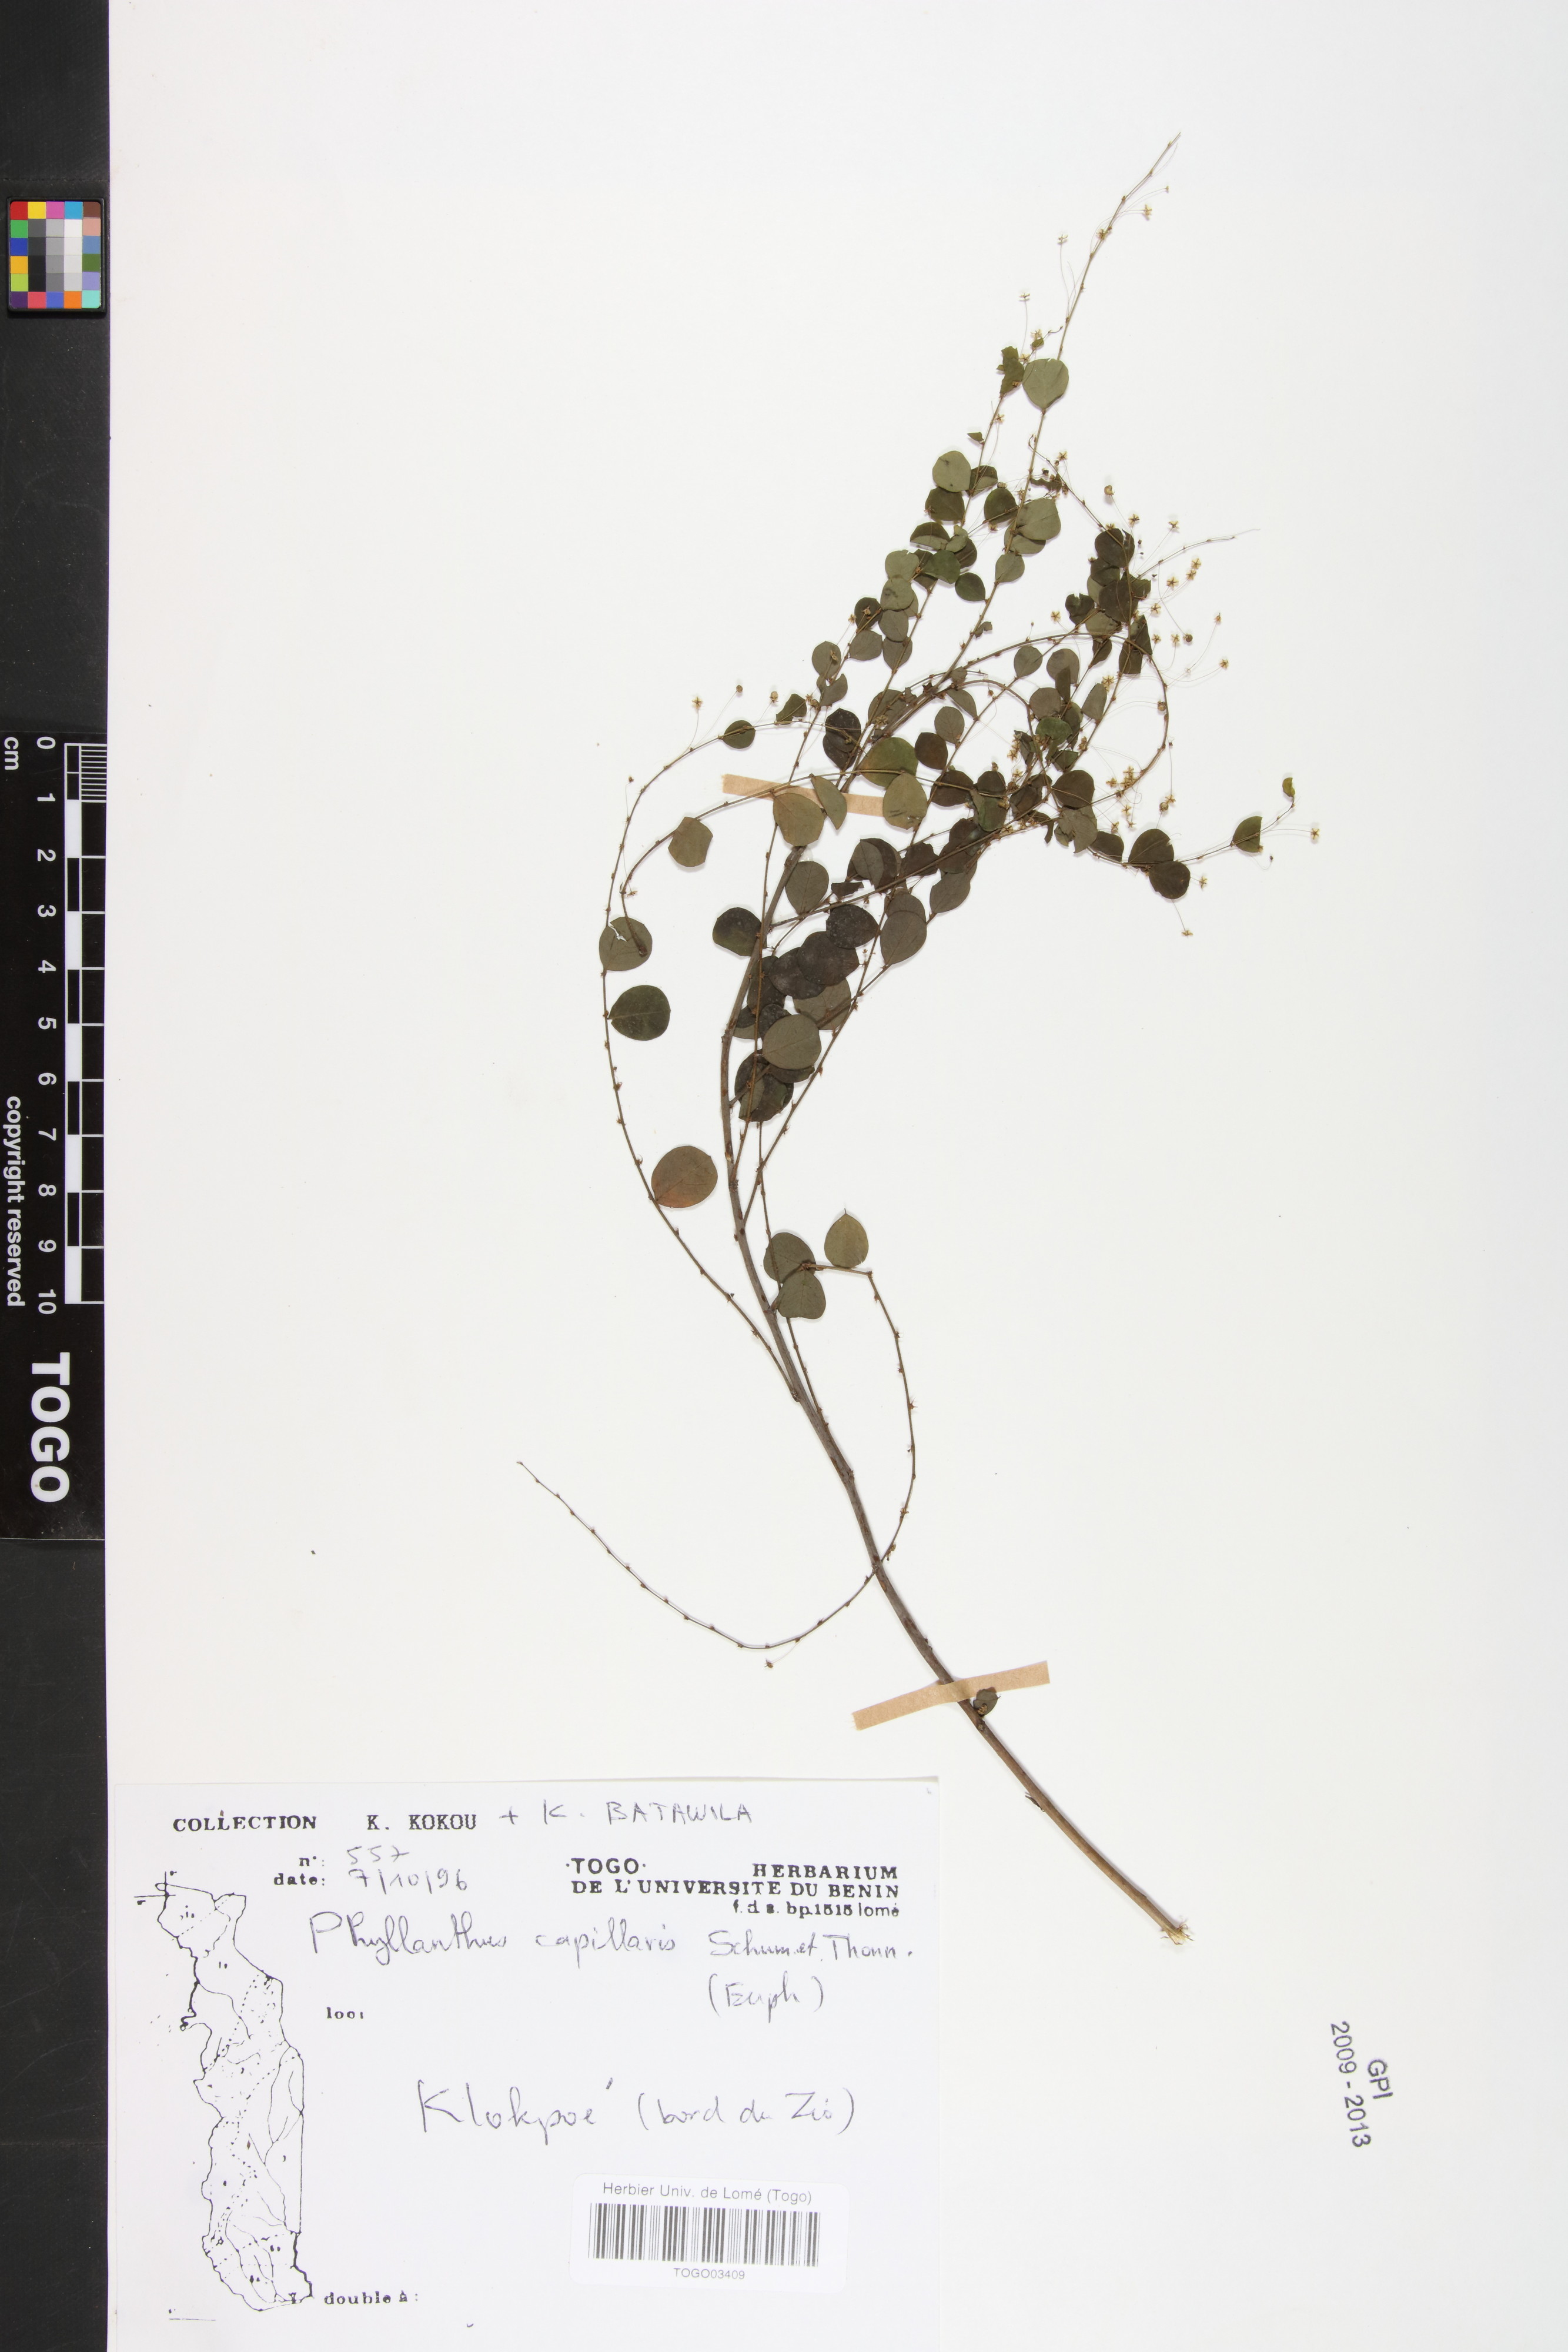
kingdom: Plantae
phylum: Tracheophyta
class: Magnoliopsida
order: Malpighiales
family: Phyllanthaceae
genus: Phyllanthus
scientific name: Phyllanthus nummulariifolius
